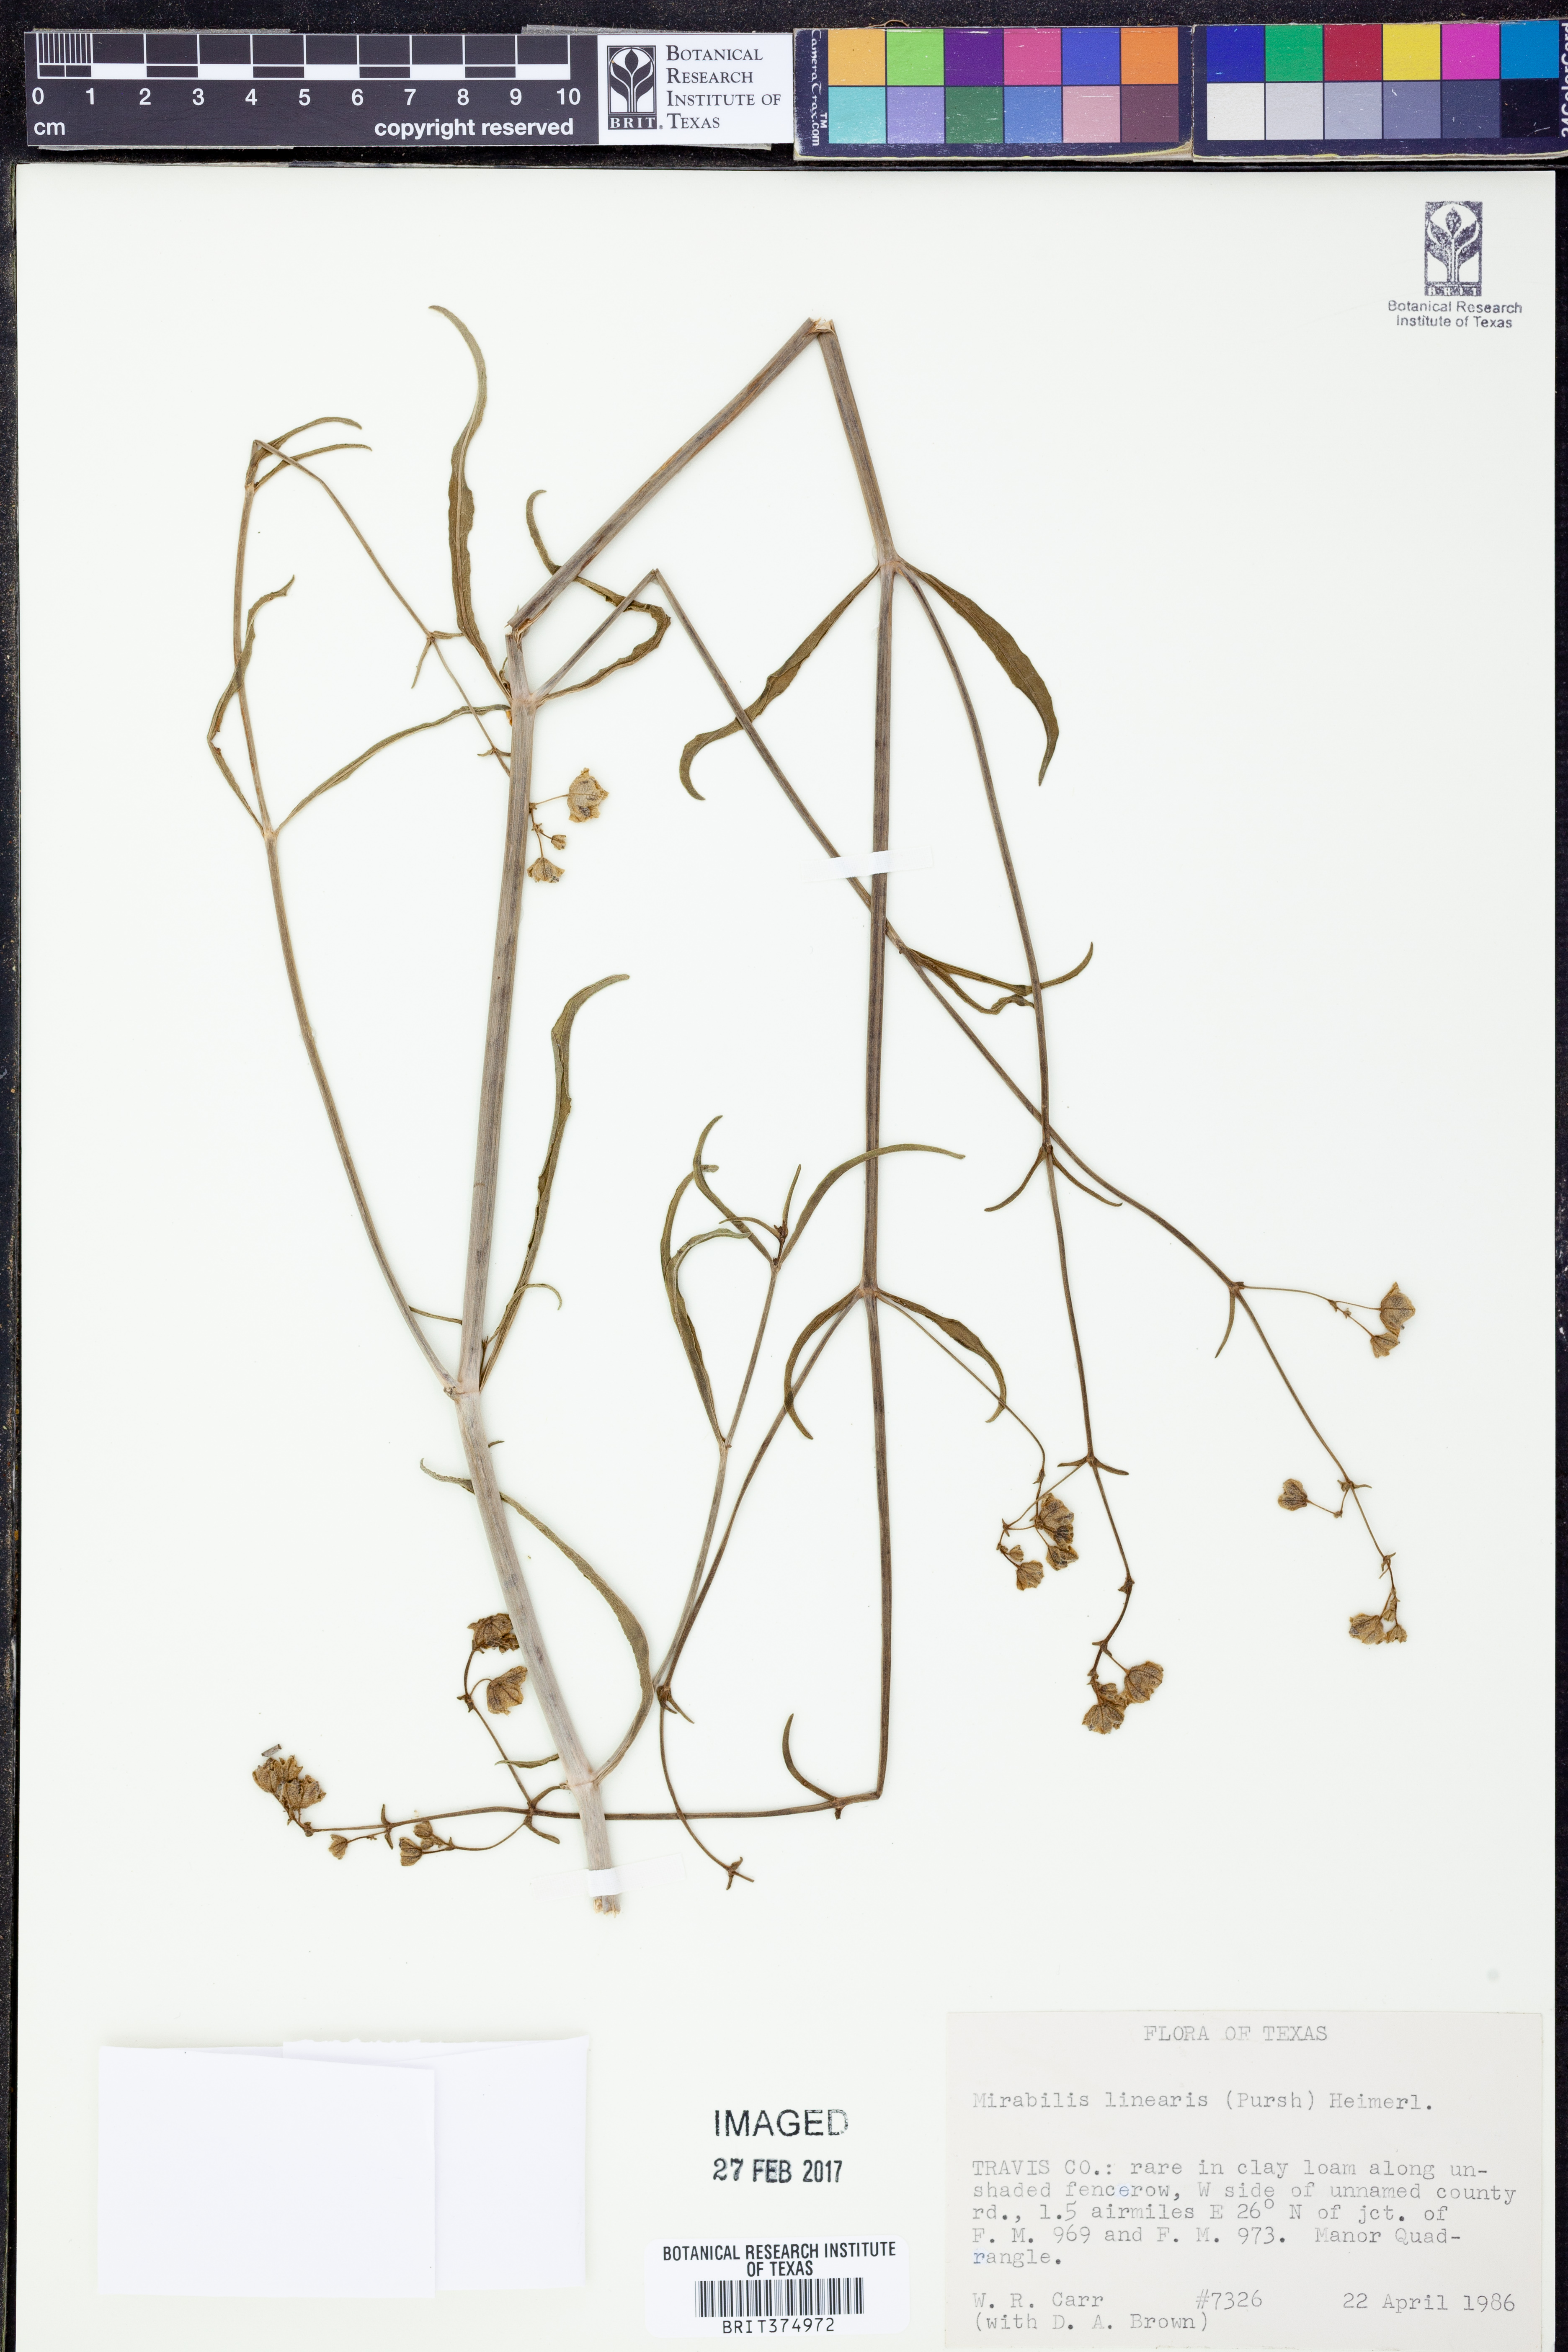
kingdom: Plantae
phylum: Tracheophyta
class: Magnoliopsida
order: Caryophyllales
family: Nyctaginaceae
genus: Mirabilis
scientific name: Mirabilis linearis
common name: Linear-leaved four-o'clock
